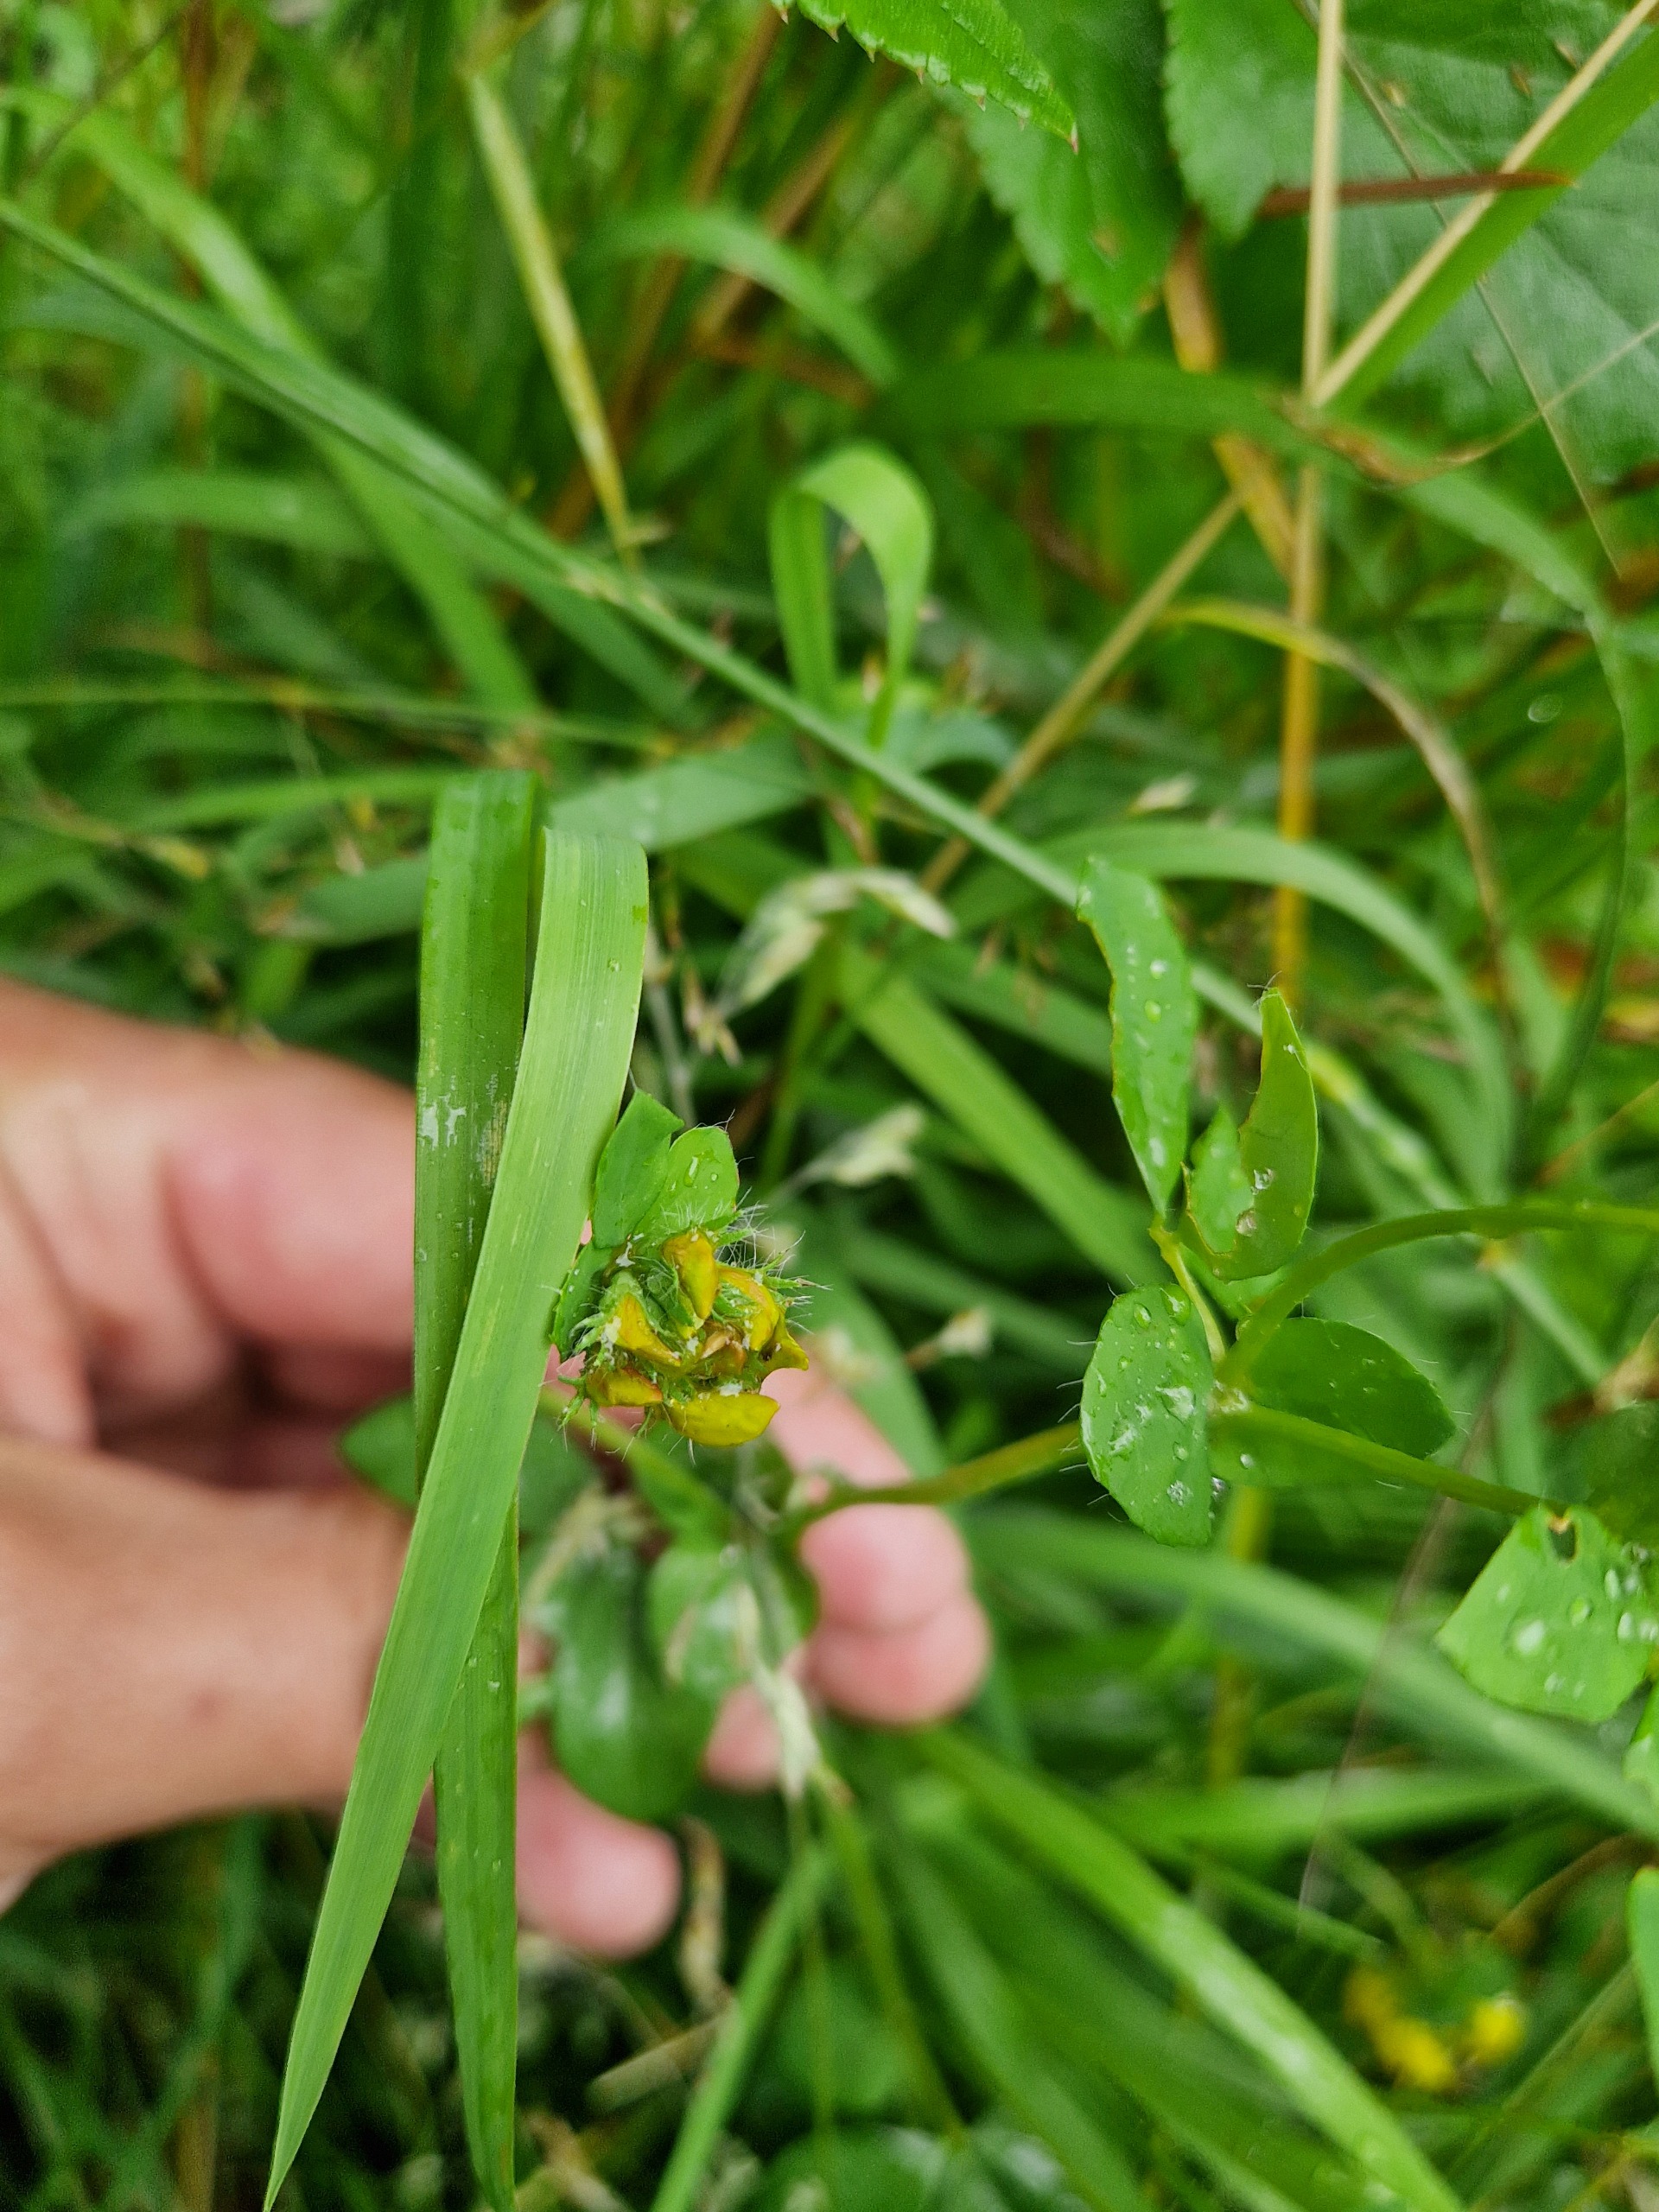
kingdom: Plantae
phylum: Tracheophyta
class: Magnoliopsida
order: Fabales
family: Fabaceae
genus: Lotus
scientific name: Lotus pedunculatus
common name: Sump-kællingetand
